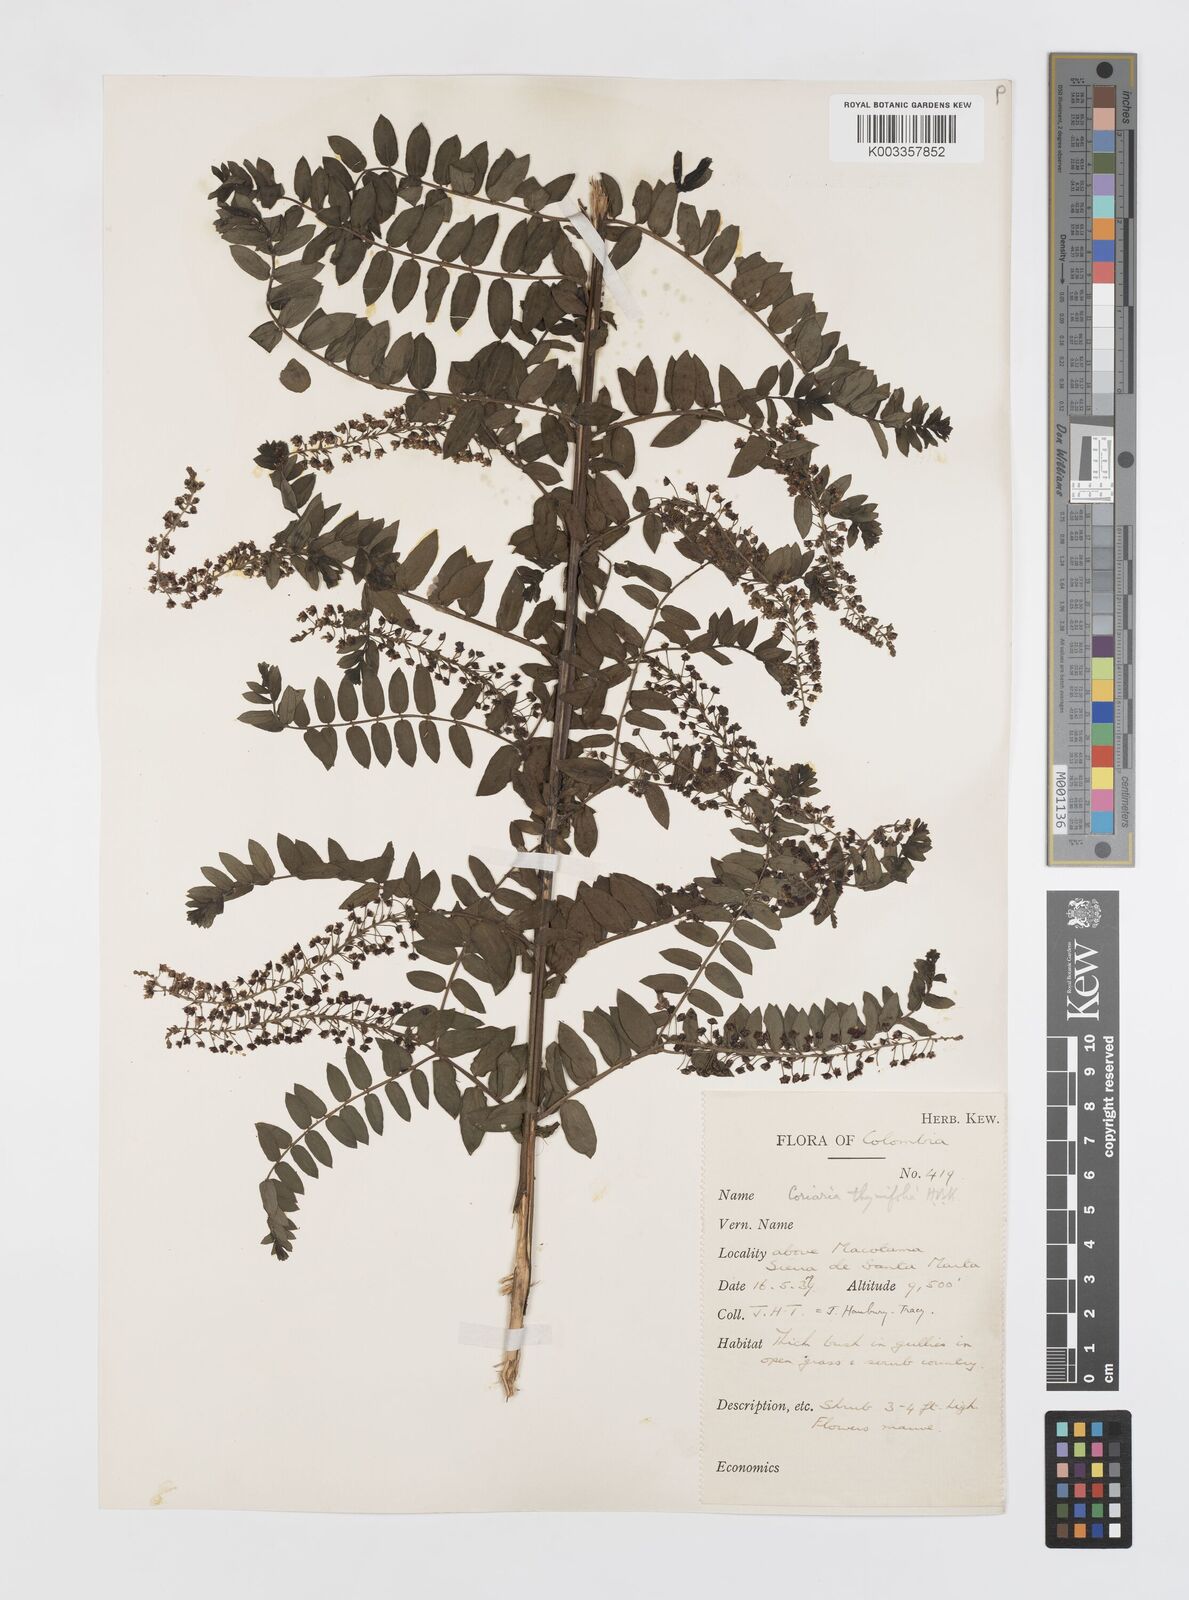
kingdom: Plantae
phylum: Tracheophyta
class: Magnoliopsida
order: Cucurbitales
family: Coriariaceae
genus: Coriaria
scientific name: Coriaria microphylla
